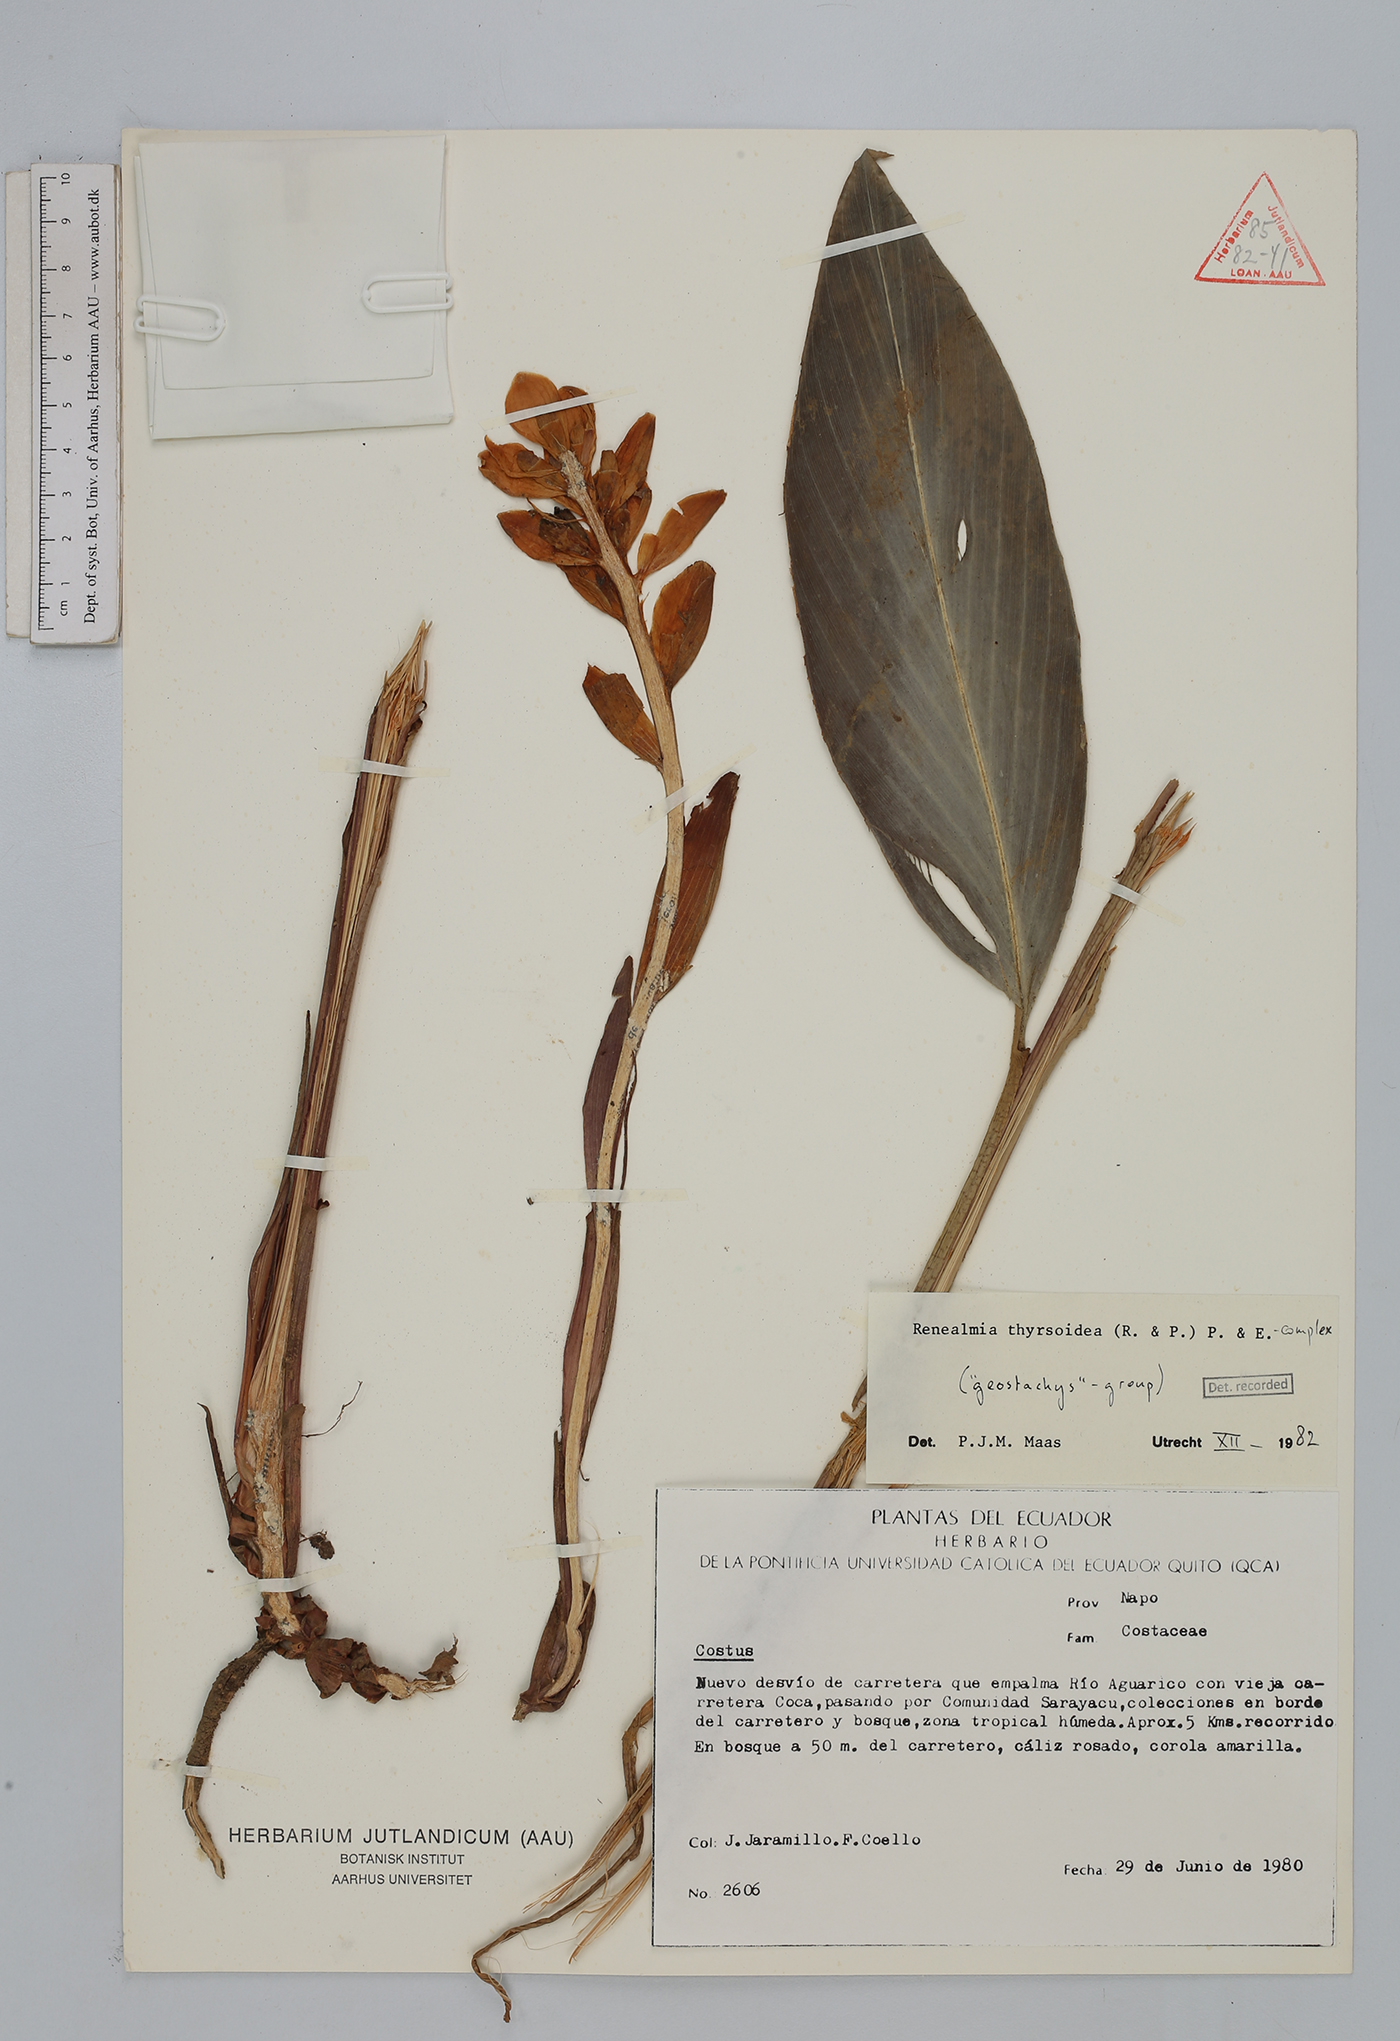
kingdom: Plantae
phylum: Tracheophyta
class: Liliopsida
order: Zingiberales
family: Zingiberaceae
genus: Renealmia
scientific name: Renealmia thyrsoidea
